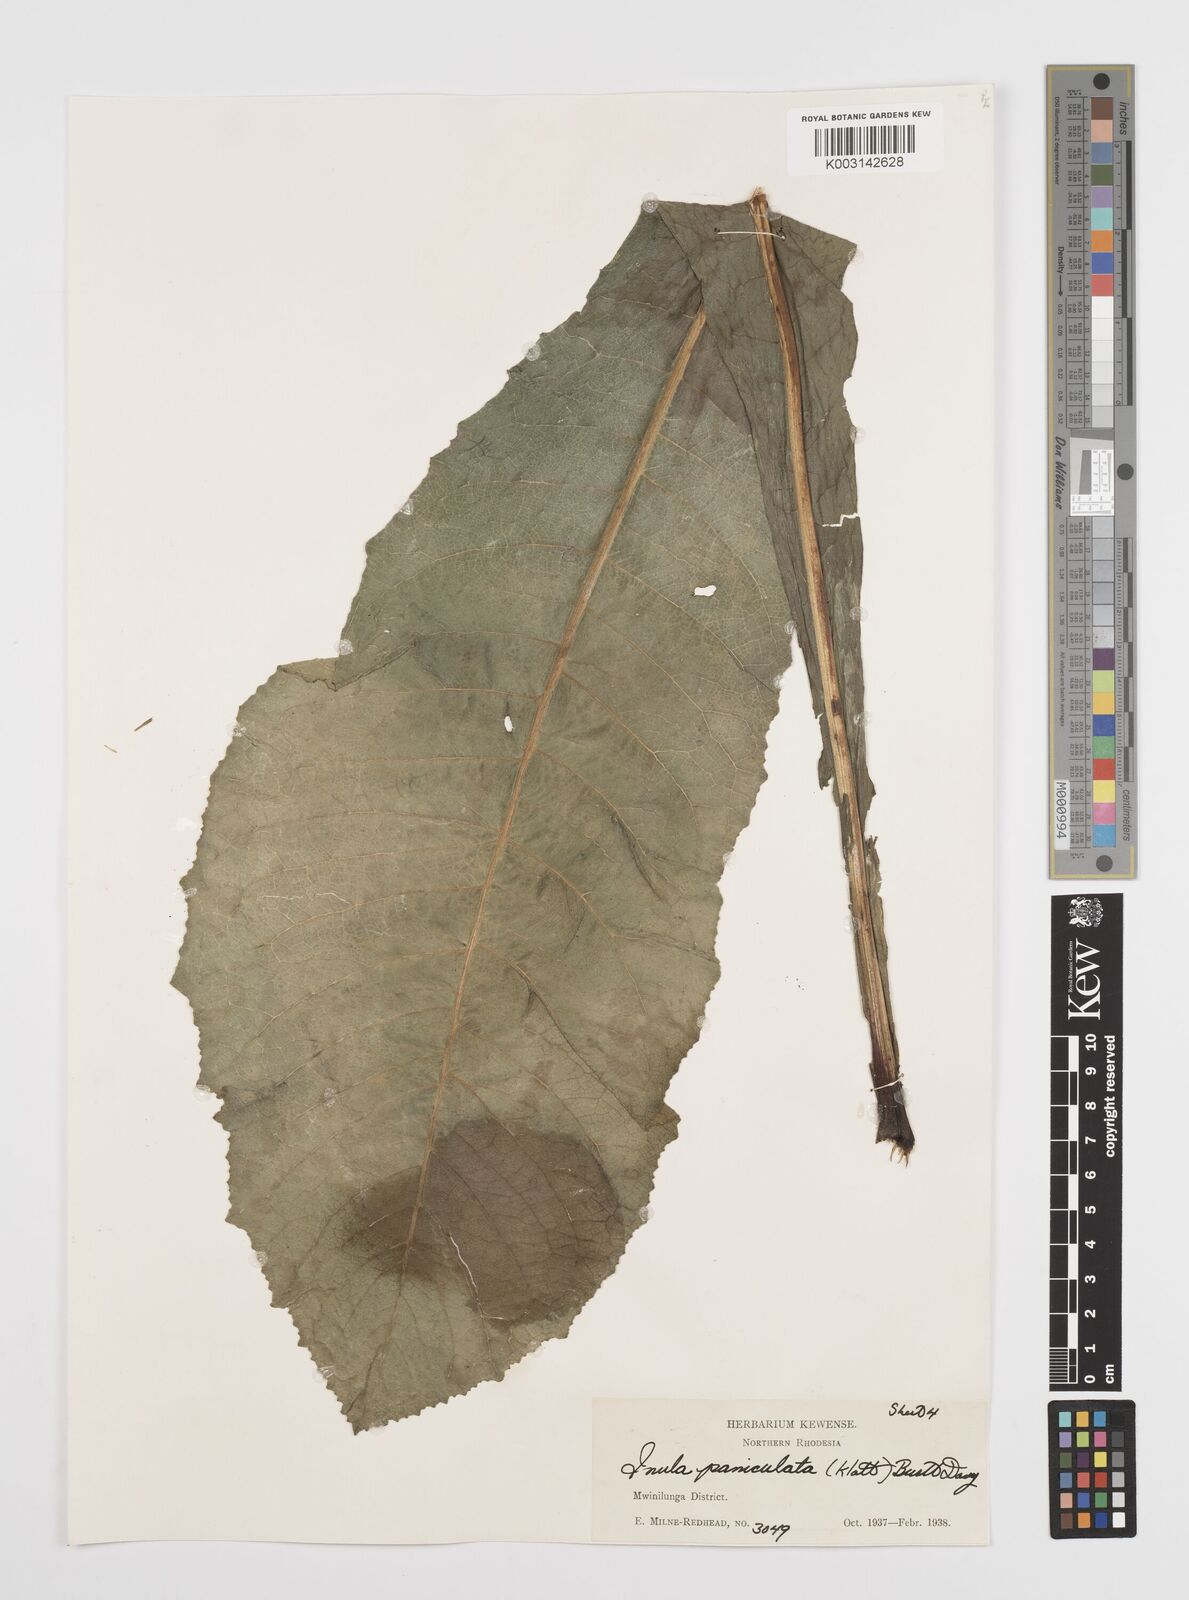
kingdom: Plantae
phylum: Tracheophyta
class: Magnoliopsida
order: Asterales
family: Asteraceae
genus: Monactinocephalus
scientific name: Monactinocephalus paniculatus
